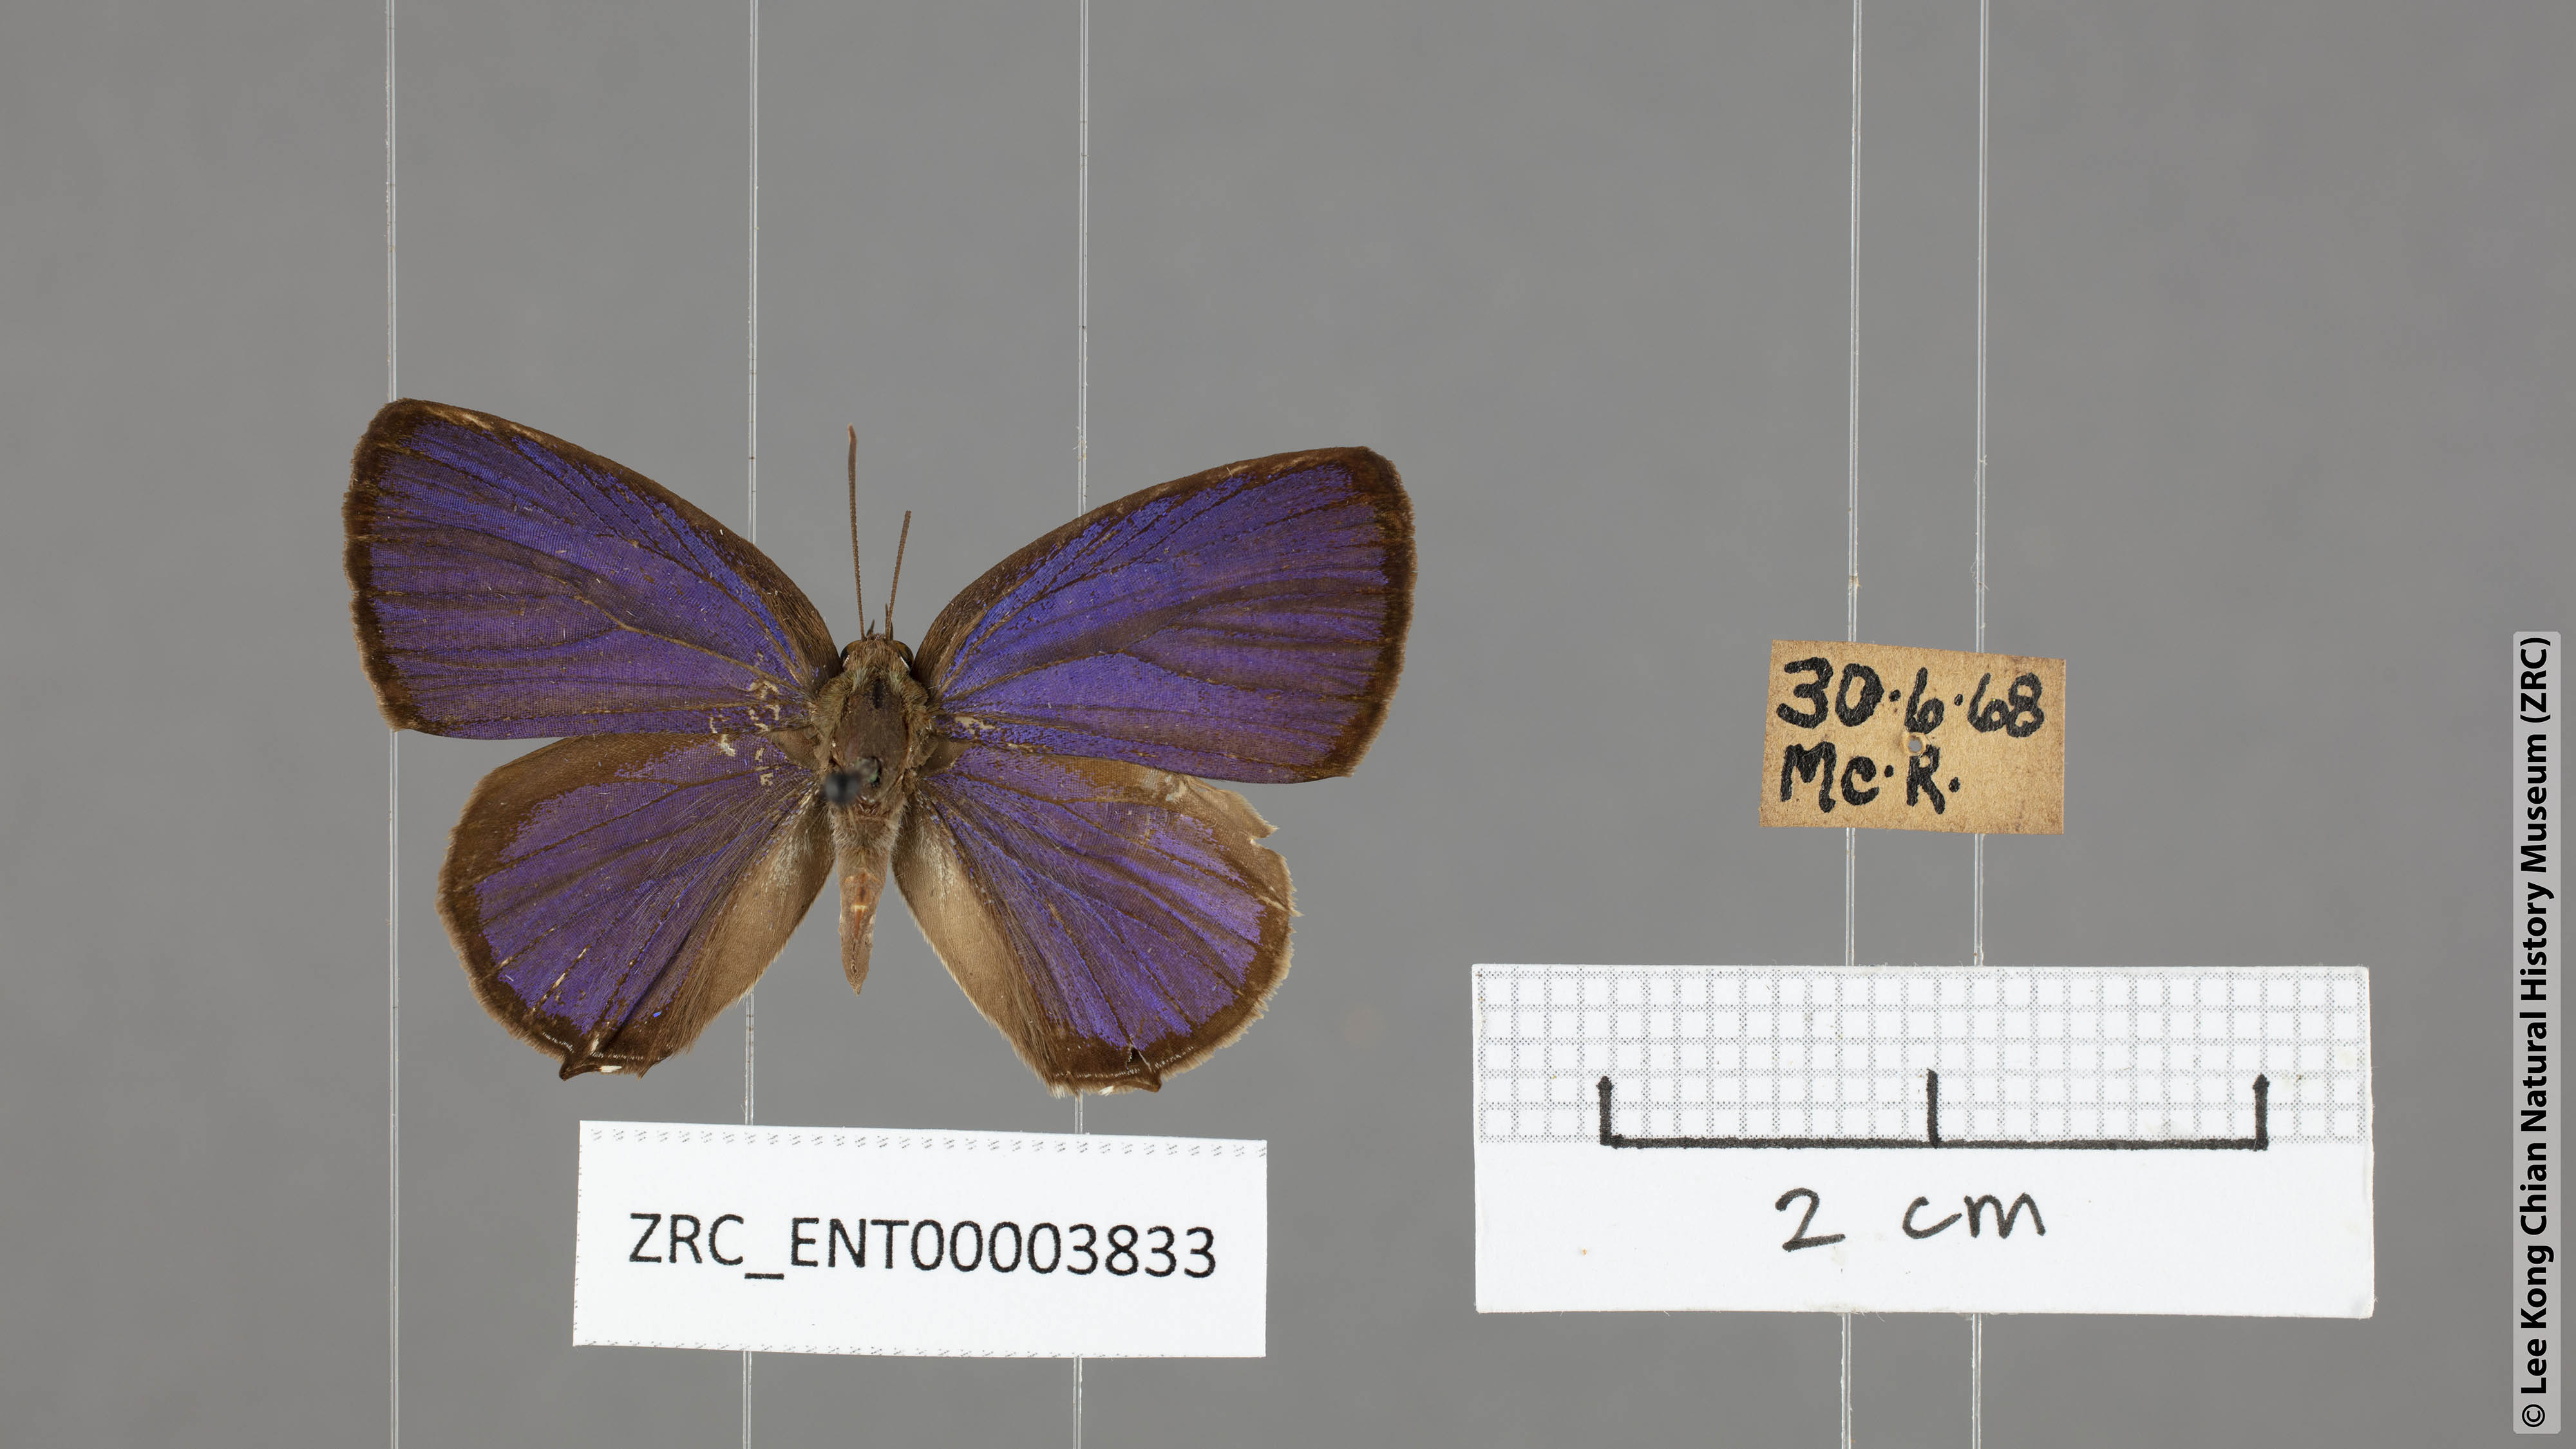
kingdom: Animalia
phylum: Arthropoda
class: Insecta
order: Lepidoptera
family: Lycaenidae
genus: Arhopala
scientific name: Arhopala ammon
